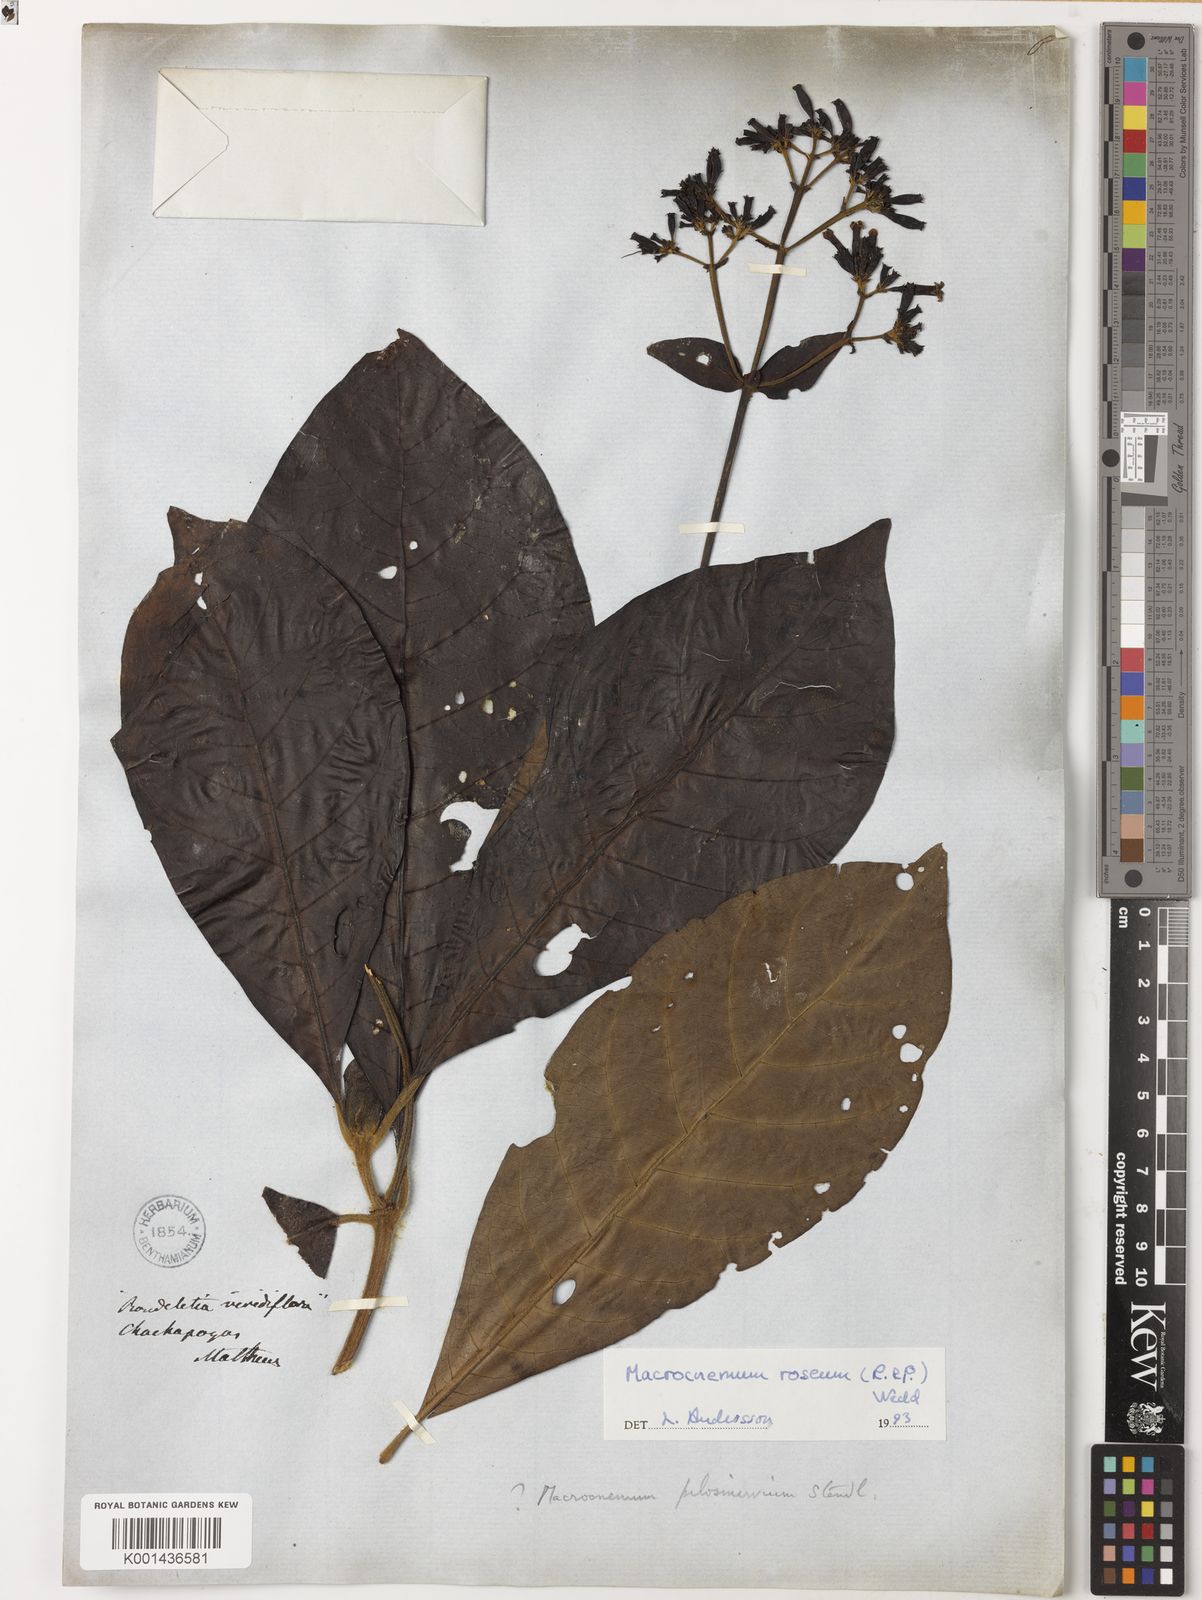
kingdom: Plantae
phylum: Tracheophyta
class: Magnoliopsida
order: Gentianales
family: Rubiaceae
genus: Macrocnemum
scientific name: Macrocnemum roseum
